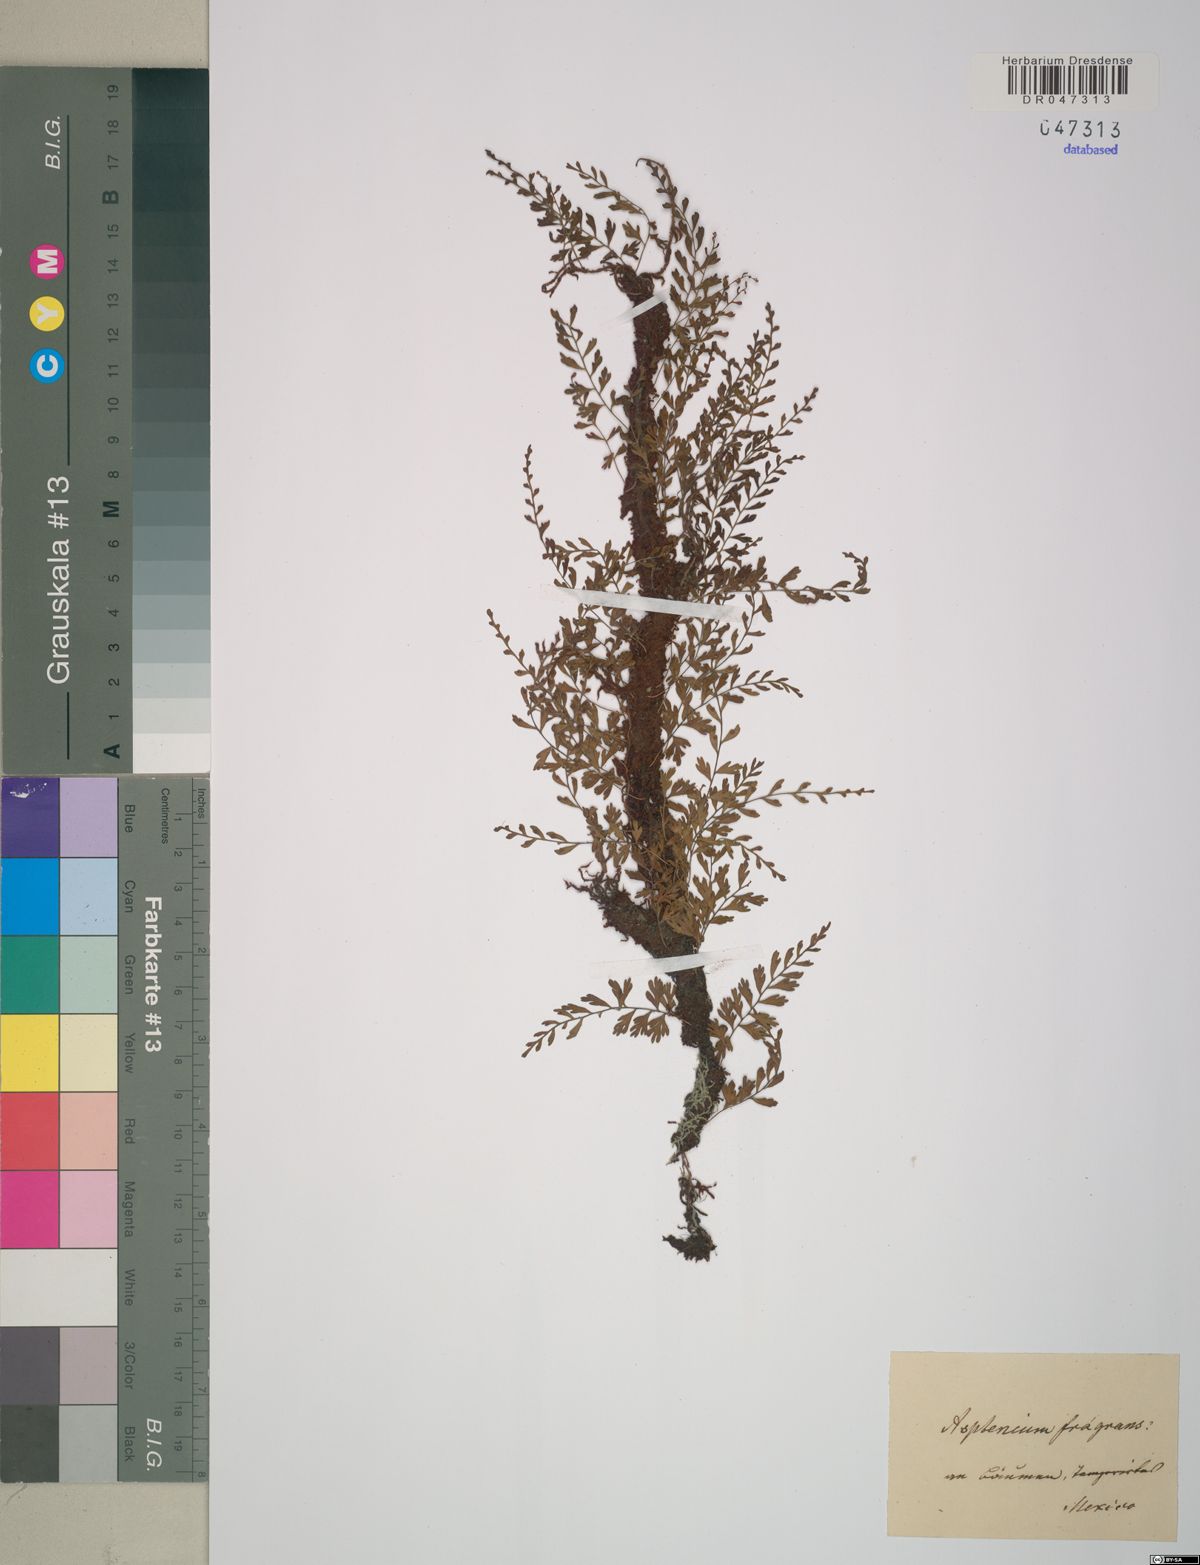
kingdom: Plantae
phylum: Tracheophyta
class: Polypodiopsida
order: Polypodiales
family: Aspleniaceae
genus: Asplenium
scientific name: Asplenium fragrans
